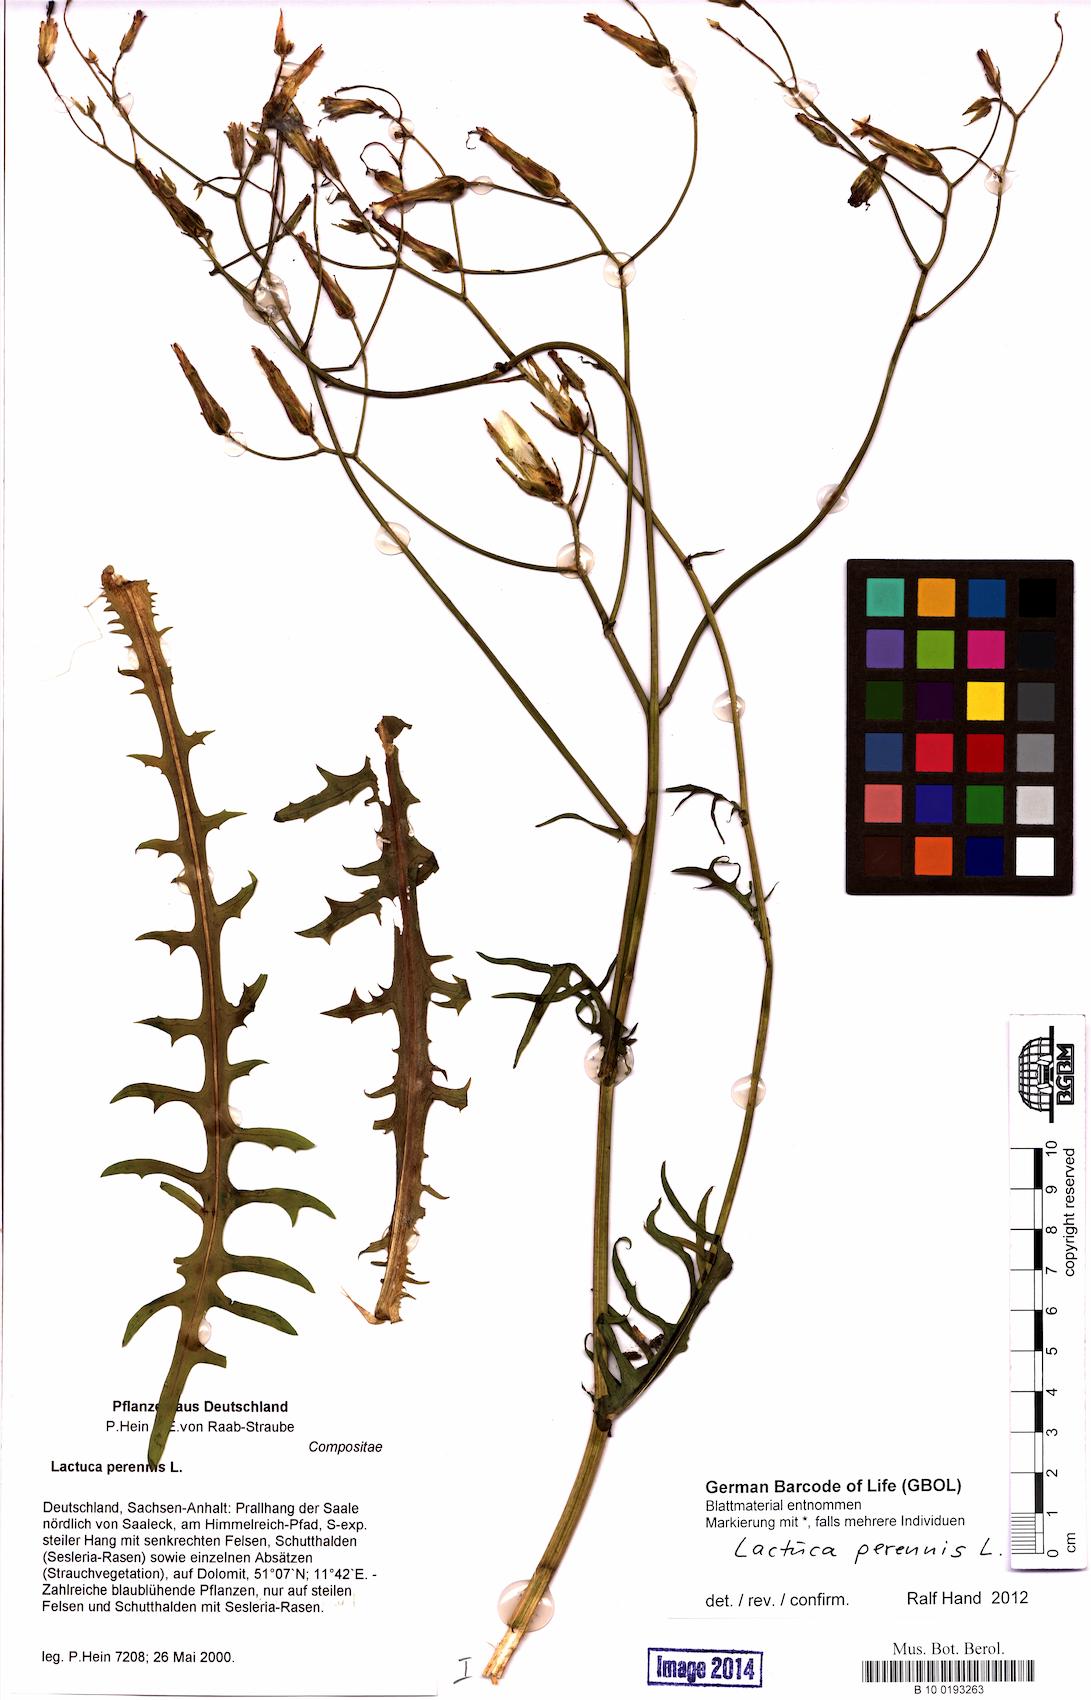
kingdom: Plantae
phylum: Tracheophyta
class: Magnoliopsida
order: Asterales
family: Asteraceae
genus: Lactuca
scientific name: Lactuca perennis
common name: Mountain lettuce
